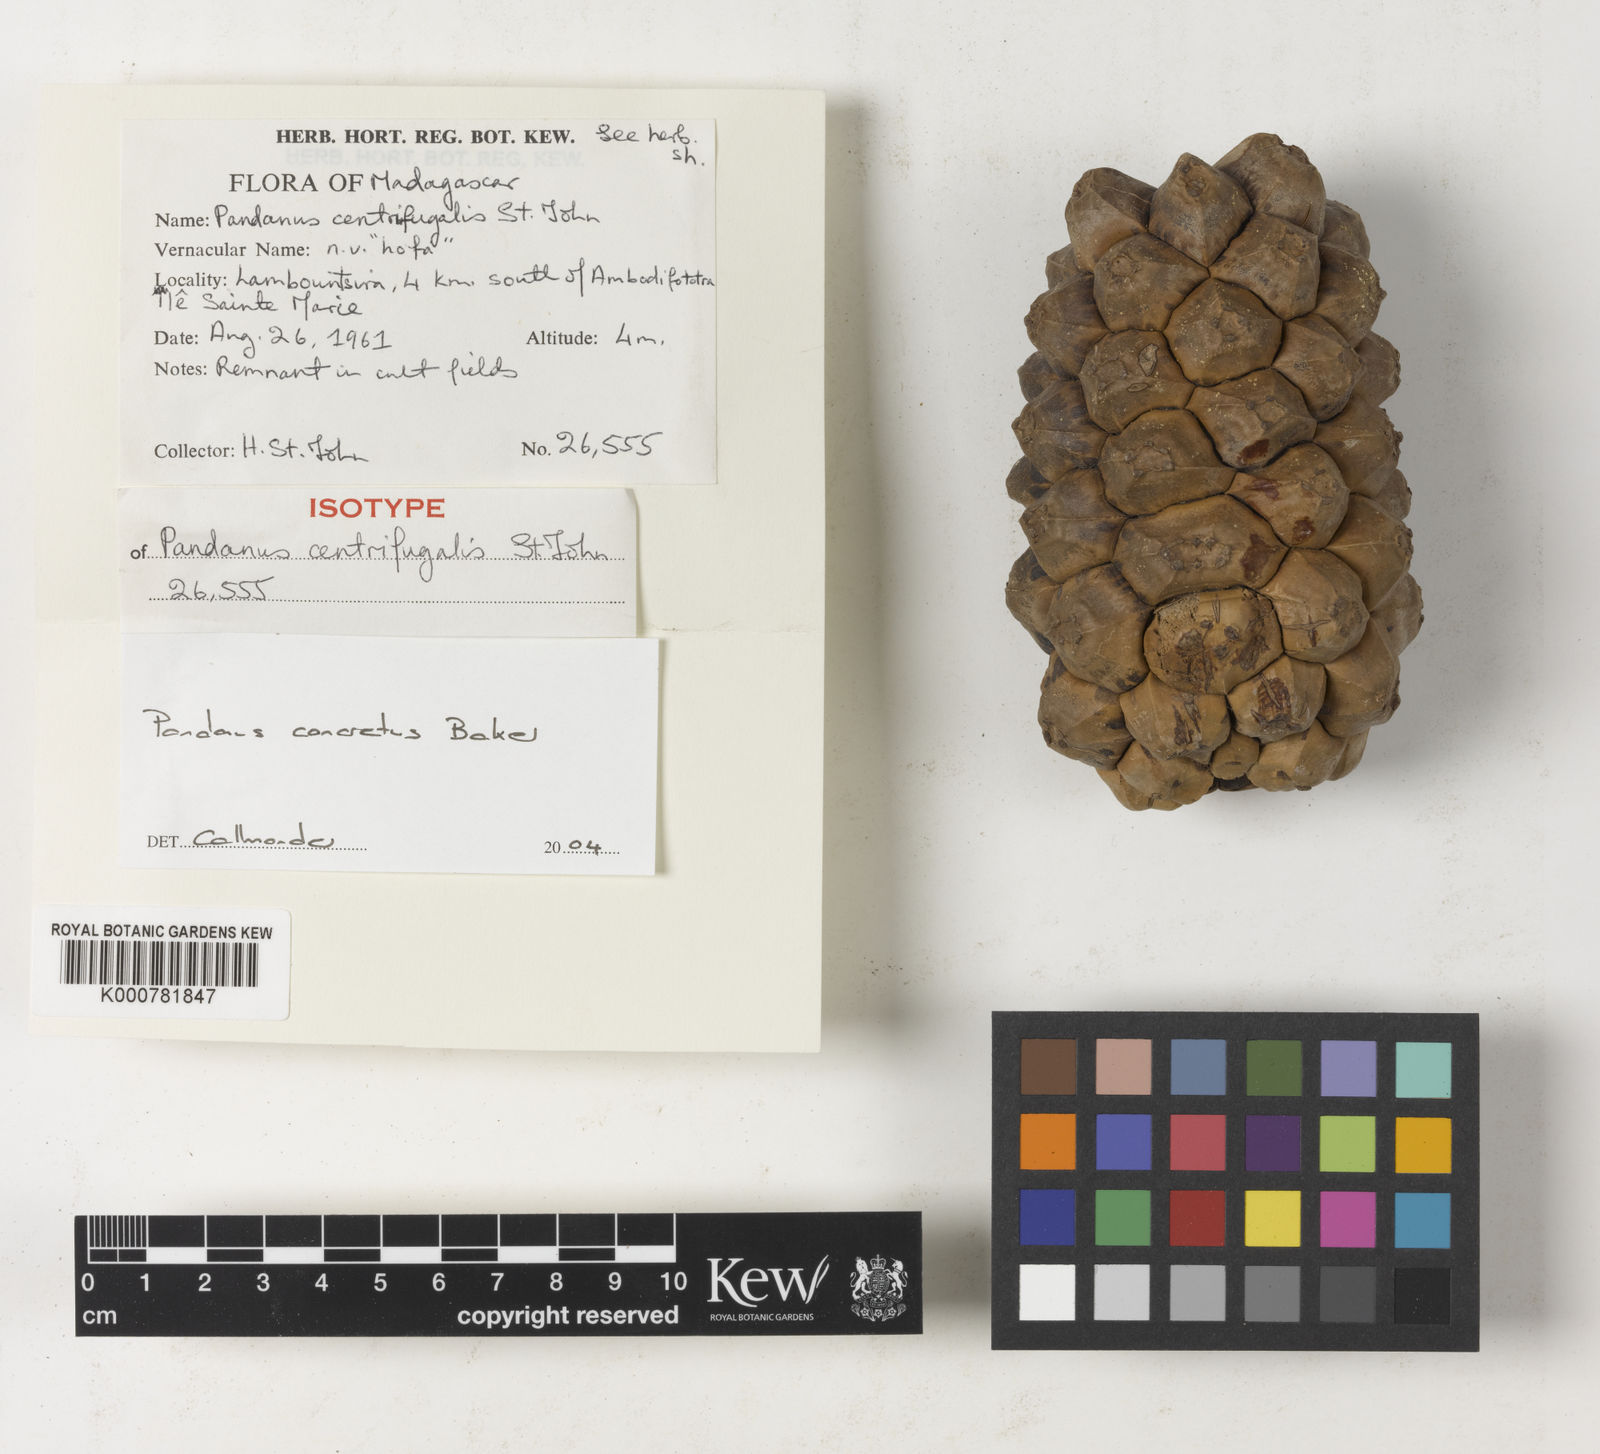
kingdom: Plantae
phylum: Tracheophyta
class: Liliopsida
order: Pandanales
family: Pandanaceae
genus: Pandanus
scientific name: Pandanus concretus
